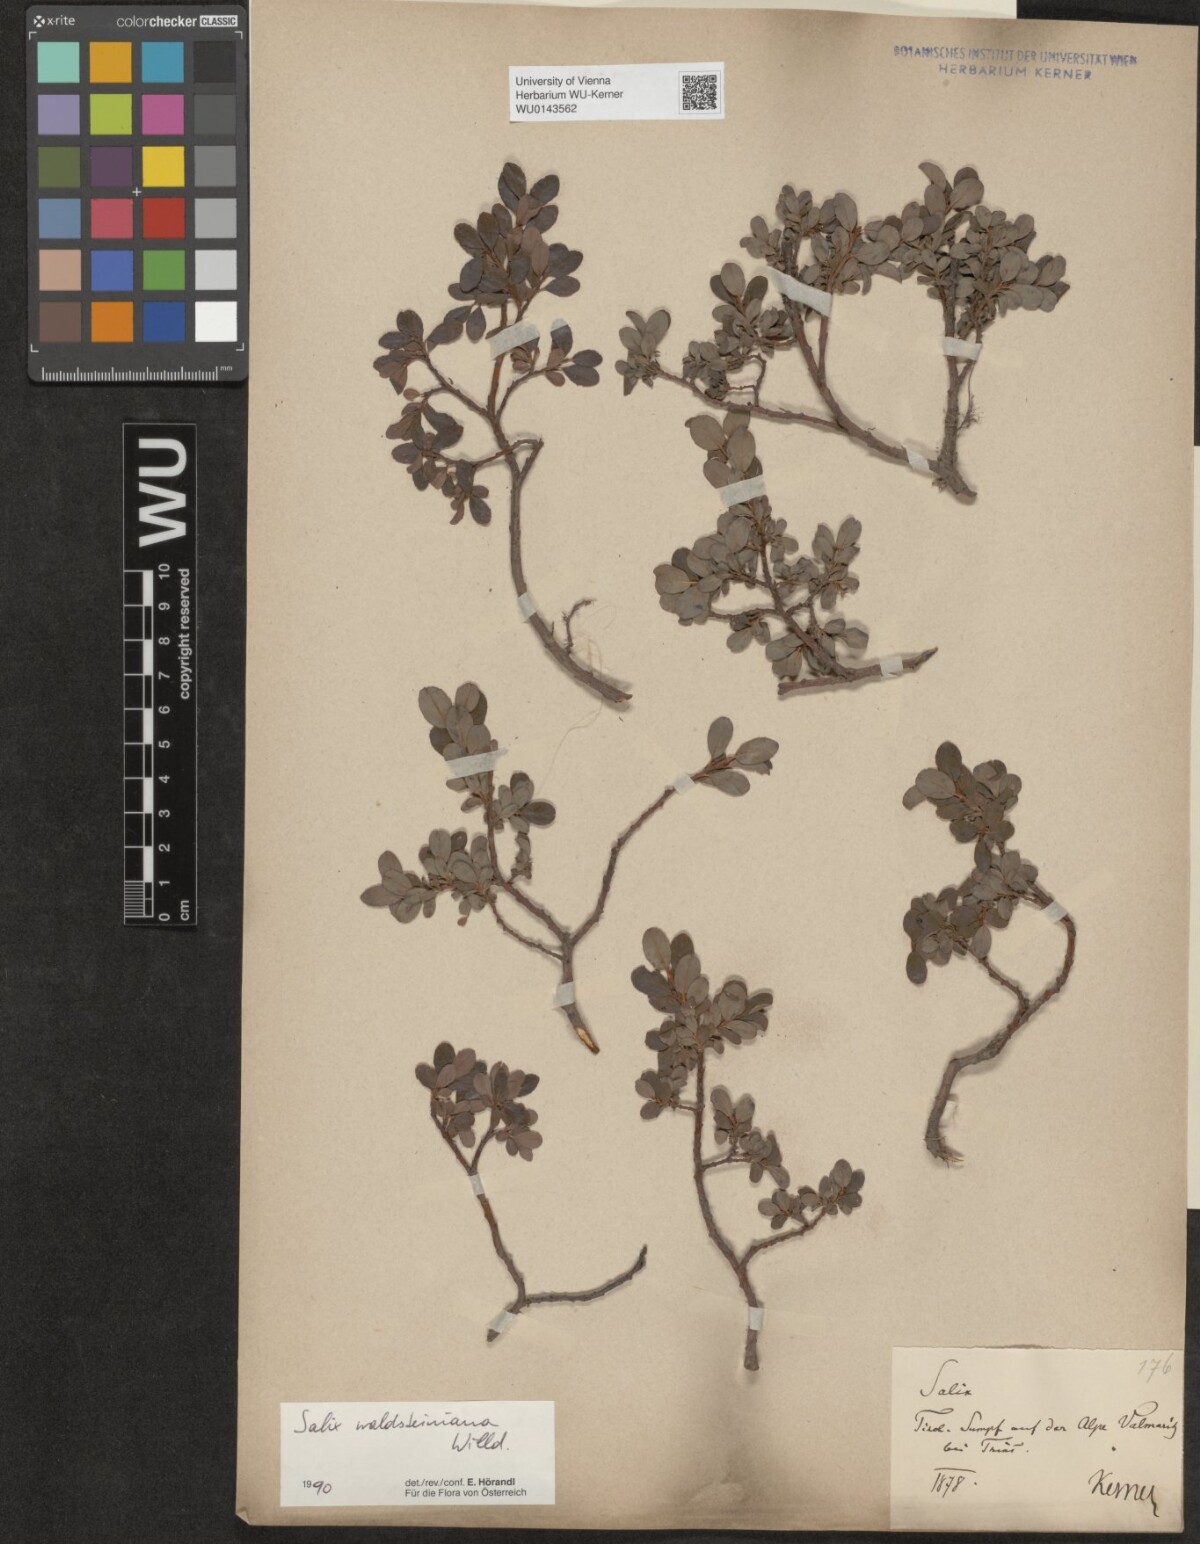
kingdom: Plantae
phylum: Tracheophyta
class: Magnoliopsida
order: Malpighiales
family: Salicaceae
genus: Salix
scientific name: Salix waldsteiniana
